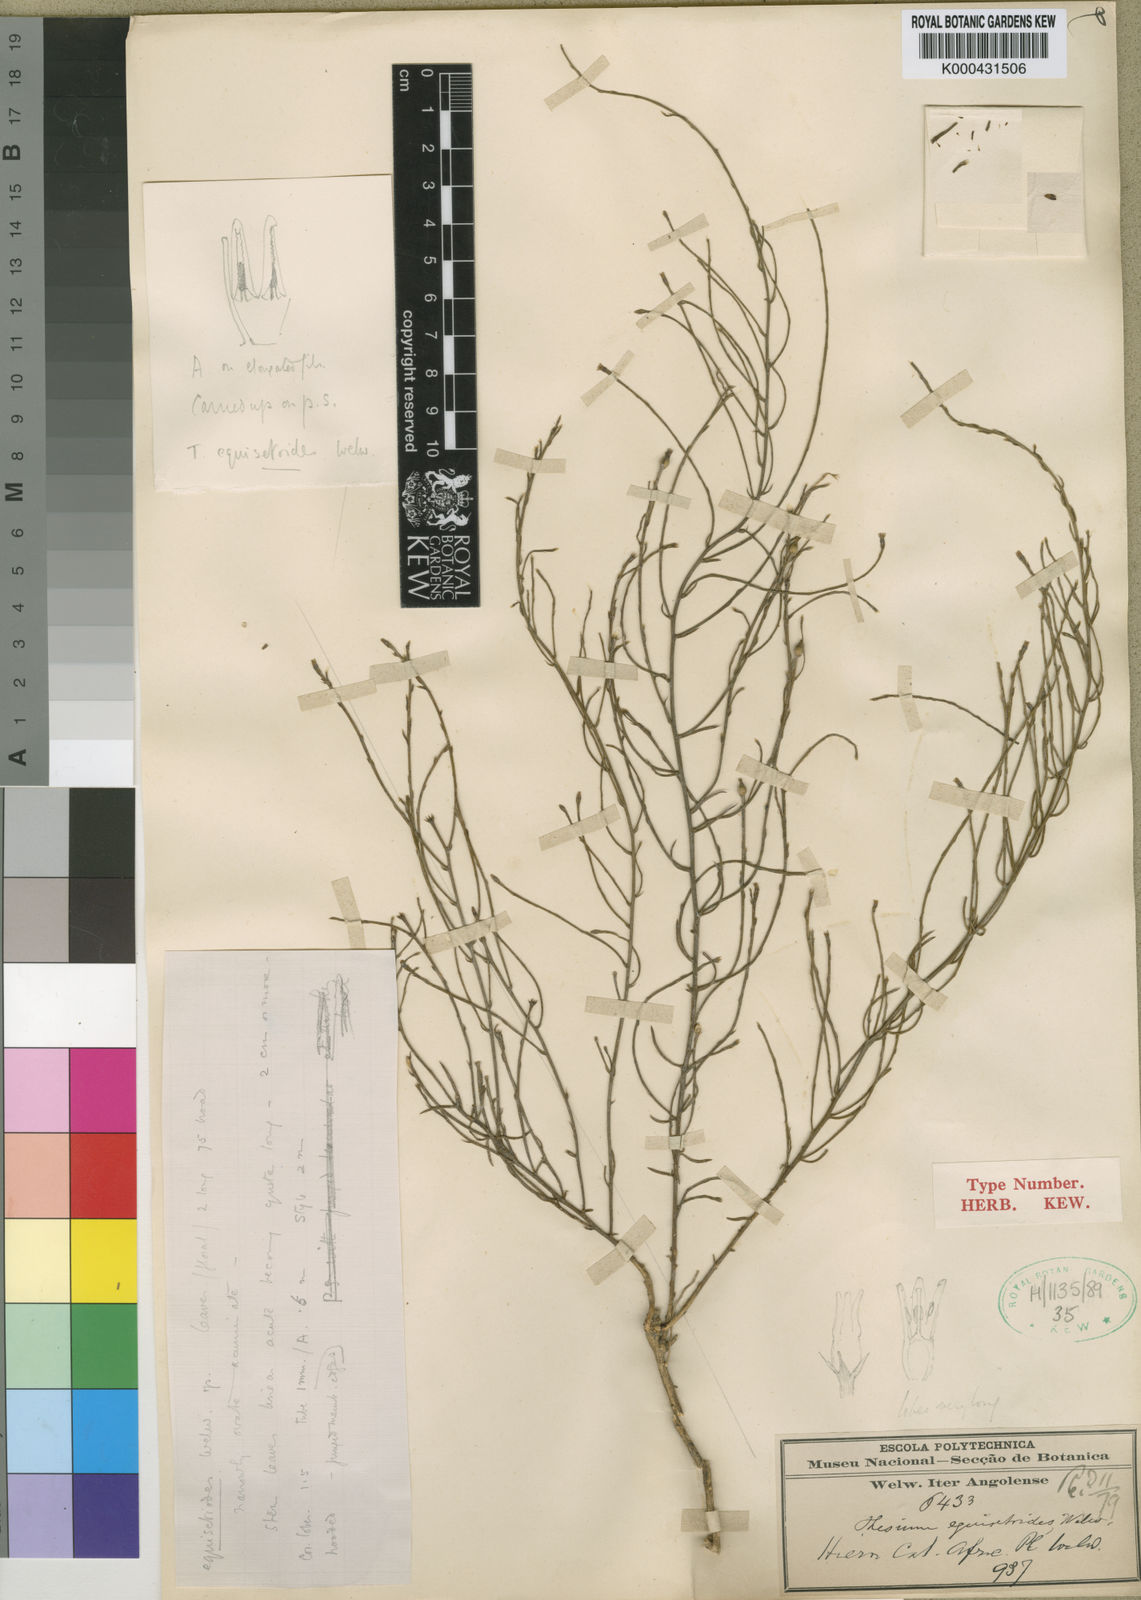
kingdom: Plantae
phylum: Tracheophyta
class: Magnoliopsida
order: Santalales
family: Thesiaceae
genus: Thesium
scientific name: Thesium equisetoides
